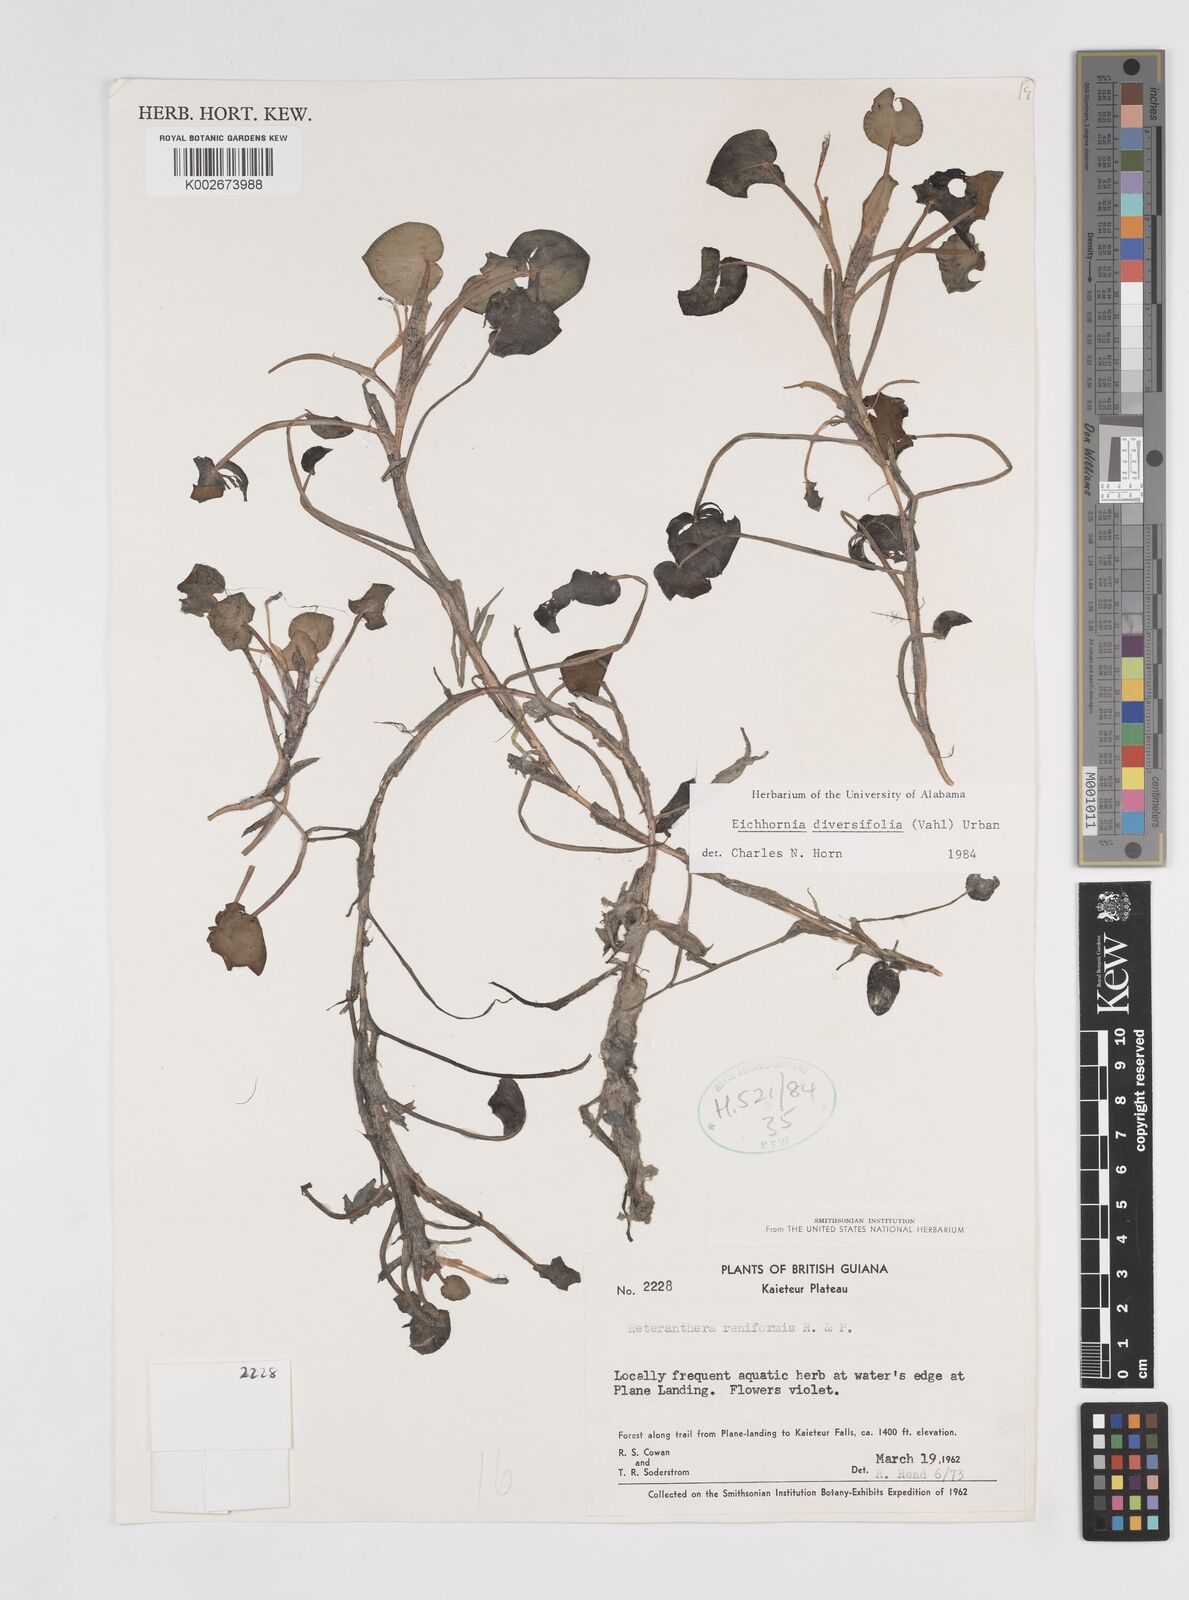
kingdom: Plantae
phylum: Tracheophyta
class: Liliopsida
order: Commelinales
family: Pontederiaceae
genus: Pontederia
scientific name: Pontederia diversifolia
